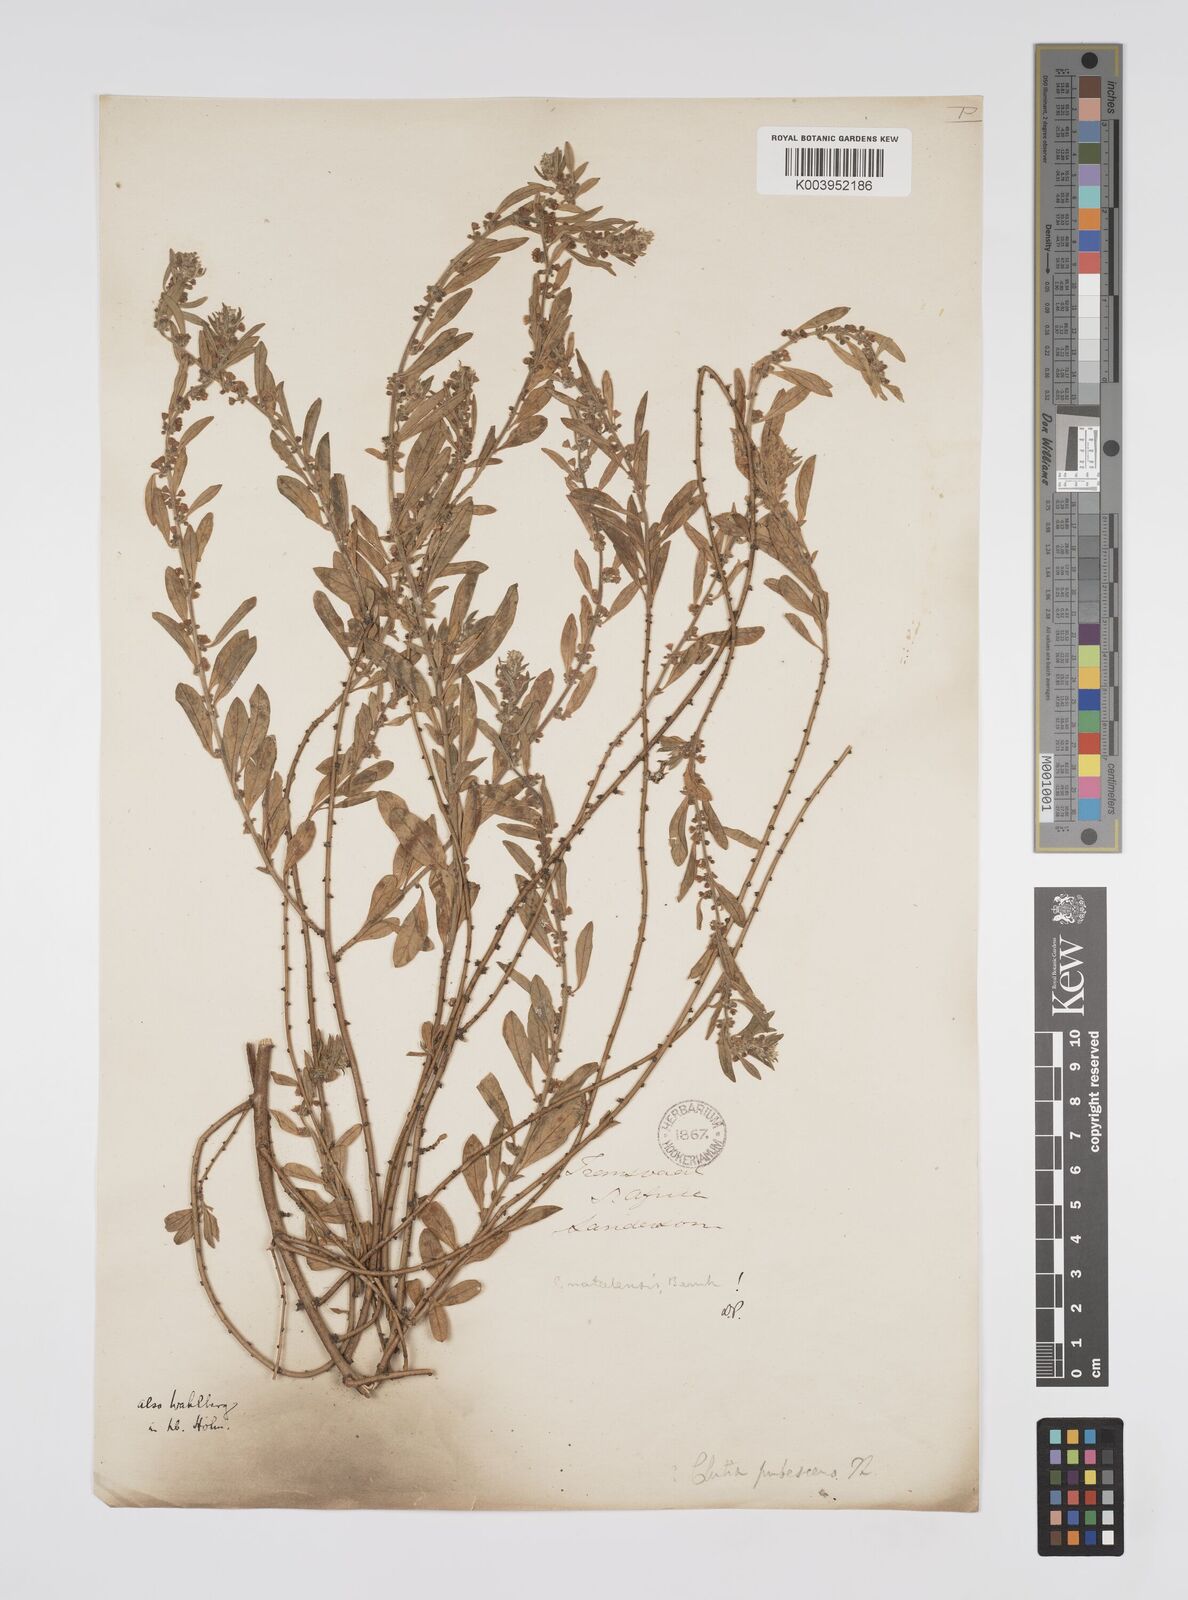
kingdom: Plantae
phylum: Tracheophyta
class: Magnoliopsida
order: Malpighiales
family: Peraceae
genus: Clutia
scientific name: Clutia natalensis
